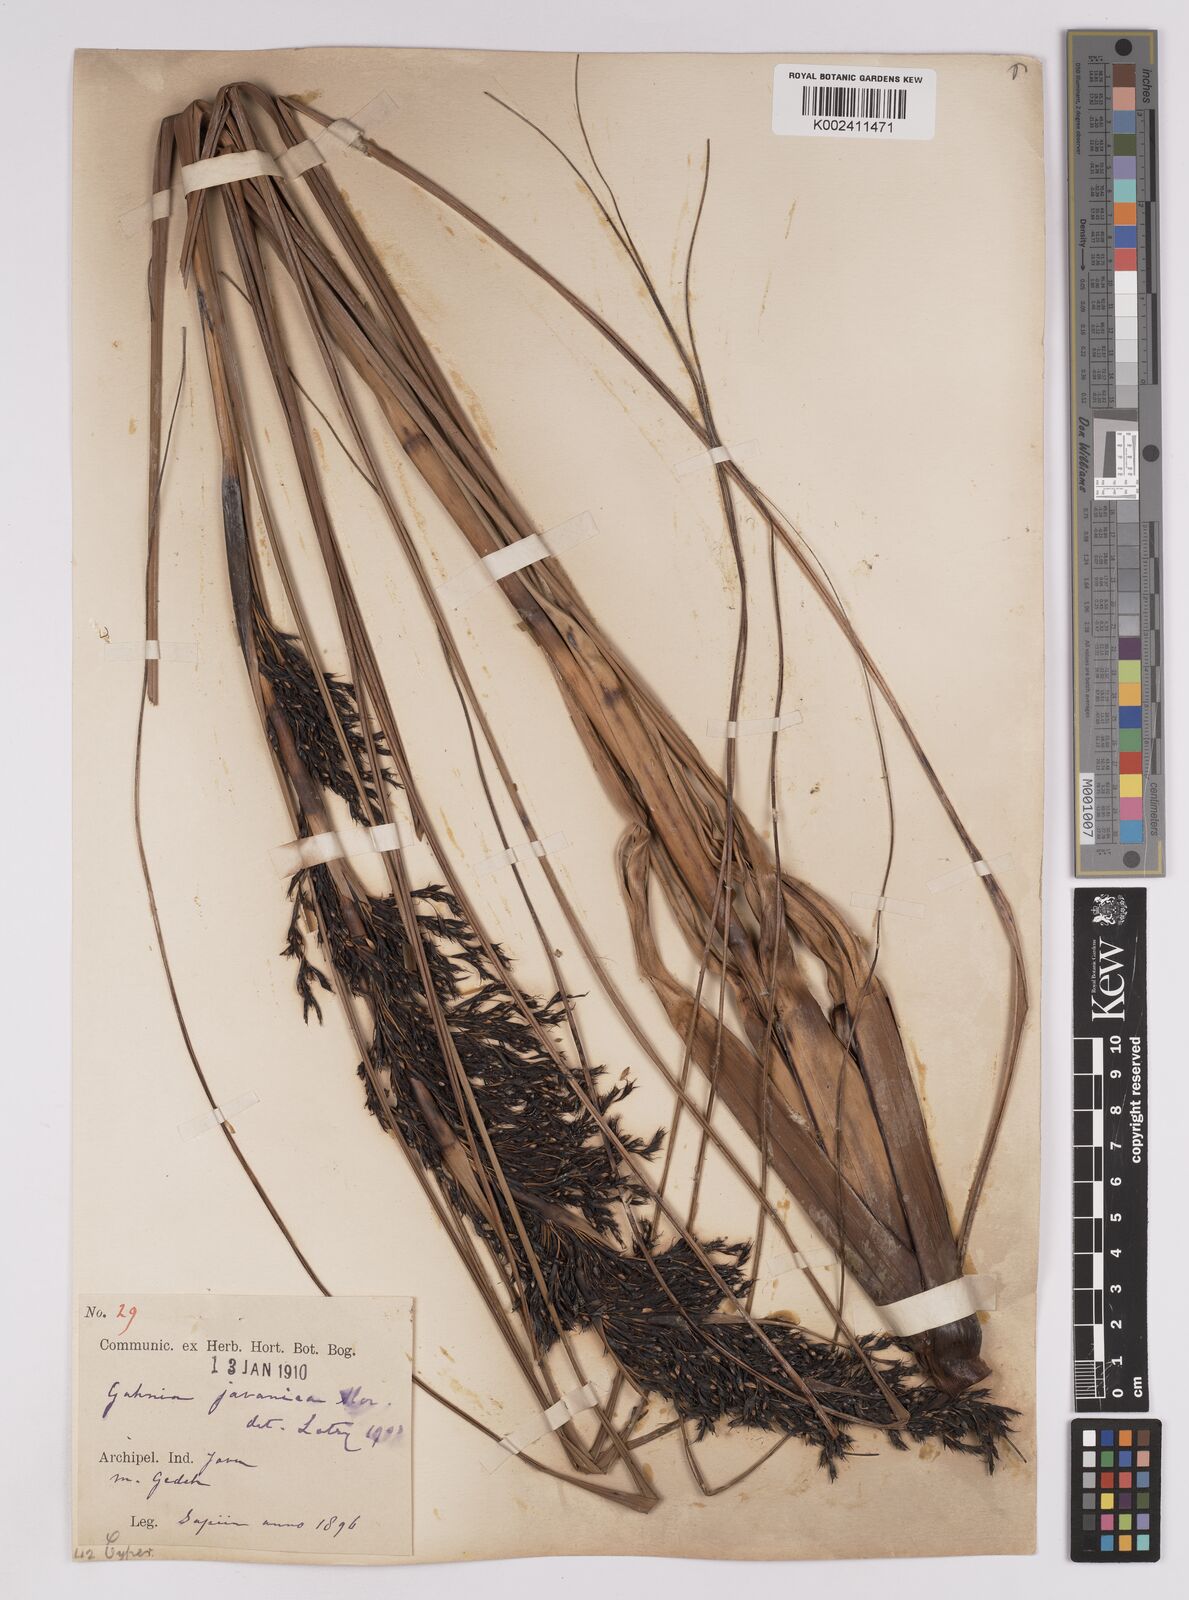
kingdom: Plantae
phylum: Tracheophyta
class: Liliopsida
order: Poales
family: Cyperaceae
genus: Gahnia
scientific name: Gahnia javanica
